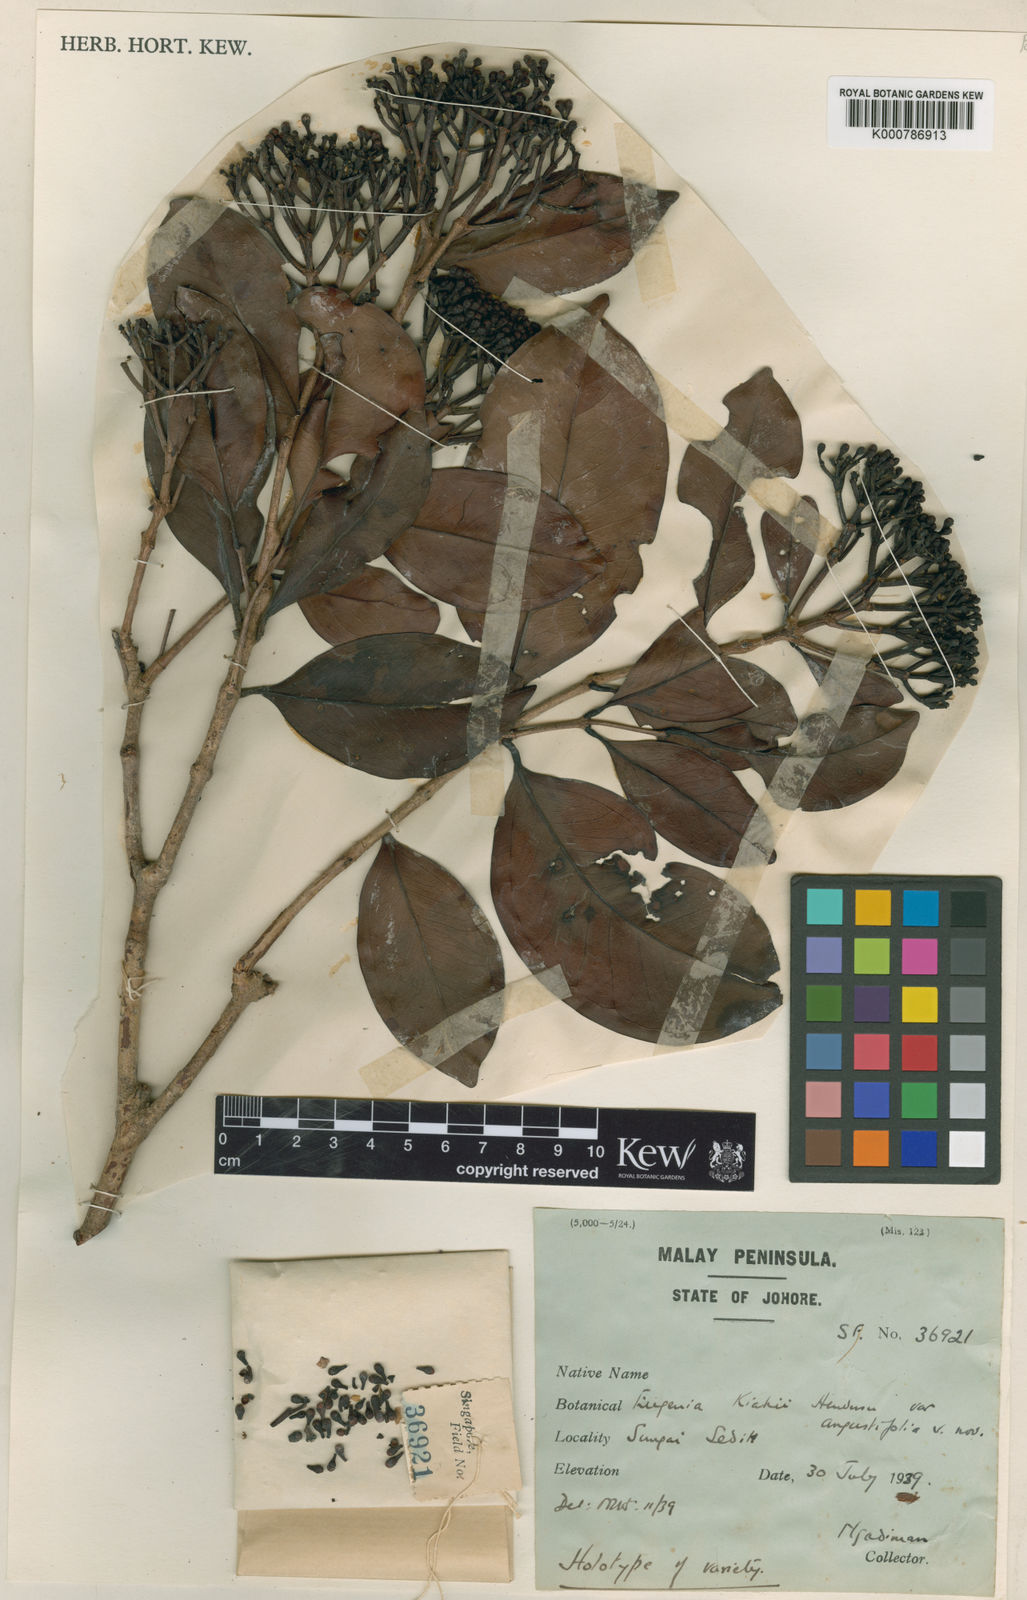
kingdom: Plantae
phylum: Tracheophyta
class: Magnoliopsida
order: Myrtales
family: Myrtaceae
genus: Syzygium
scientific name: Syzygium kiahii
